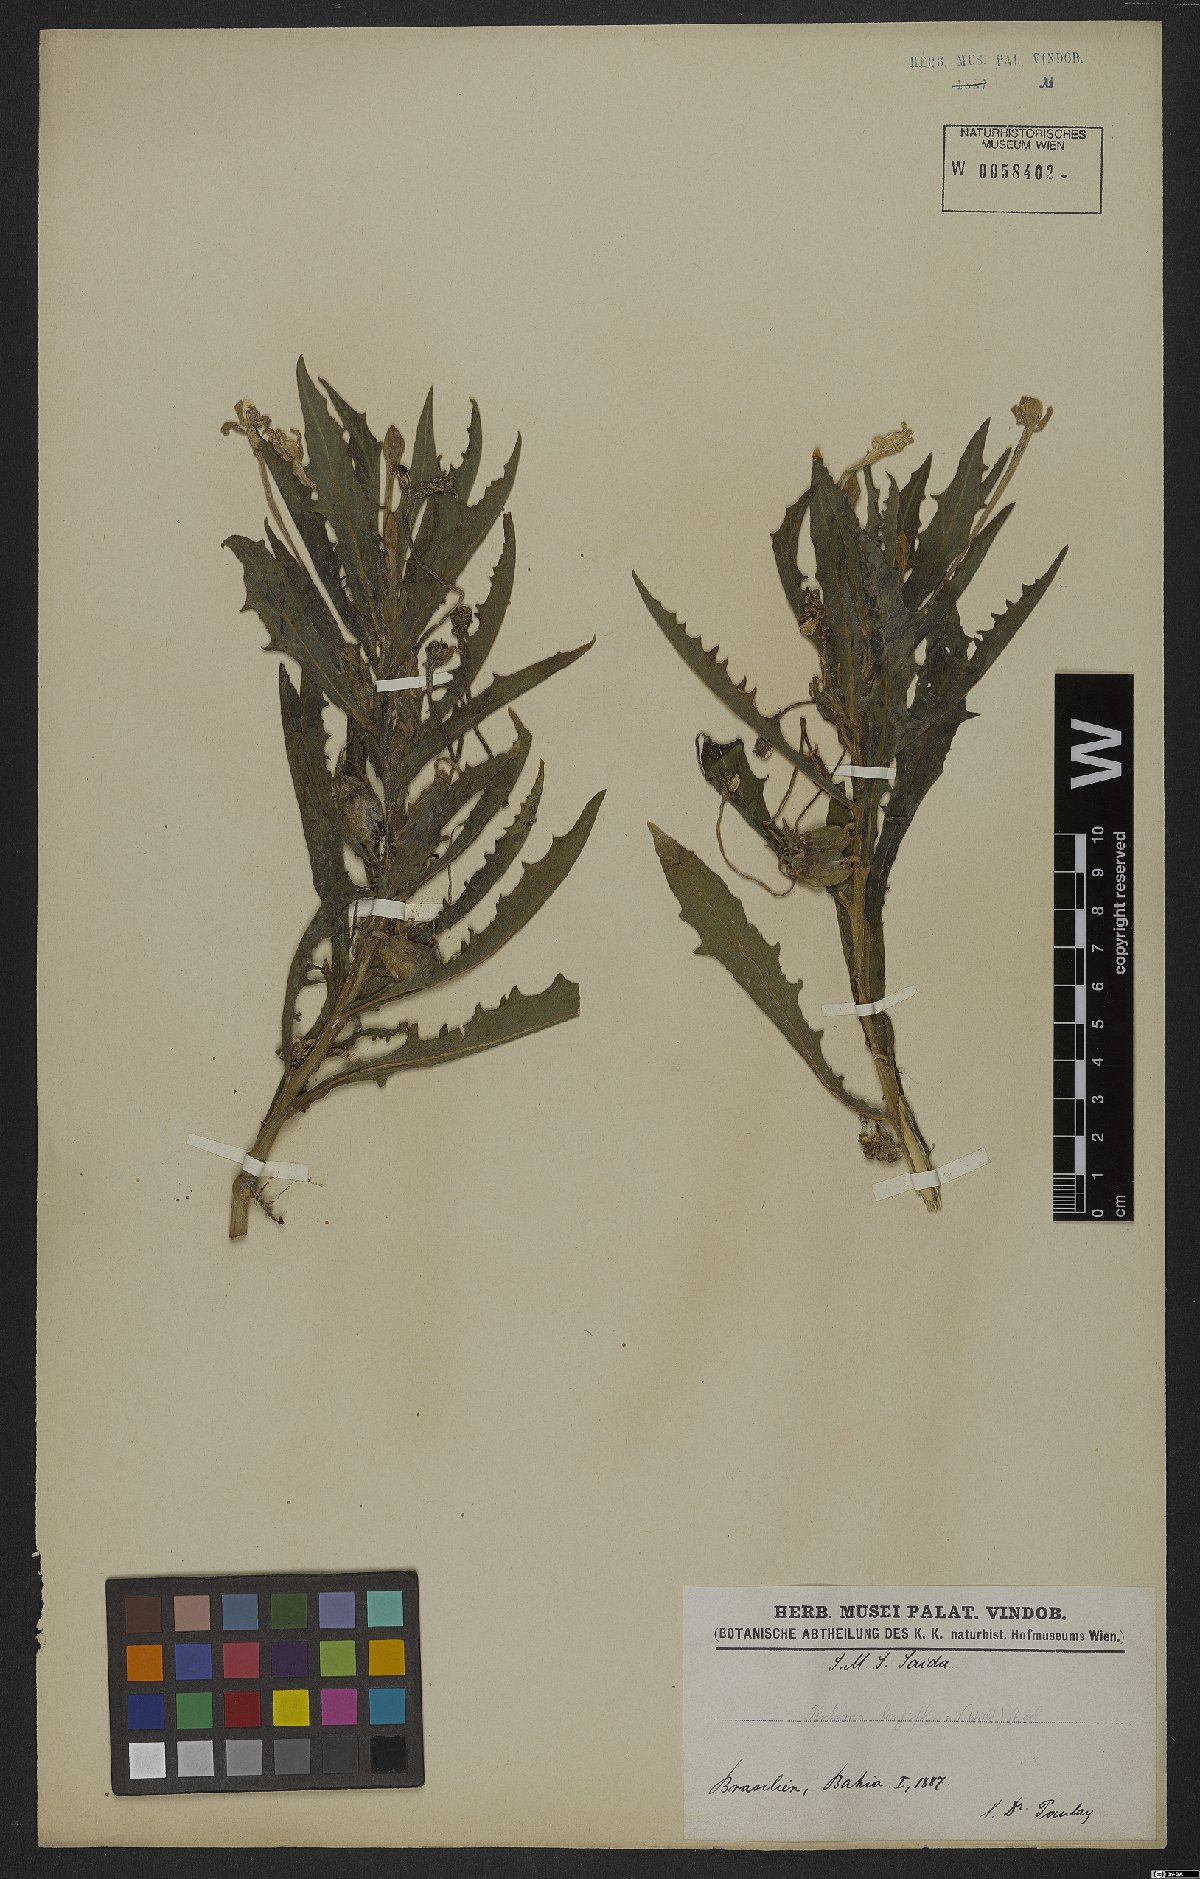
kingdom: Plantae
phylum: Tracheophyta
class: Magnoliopsida
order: Asterales
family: Campanulaceae
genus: Hippobroma
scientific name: Hippobroma longiflora
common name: Madamfate
